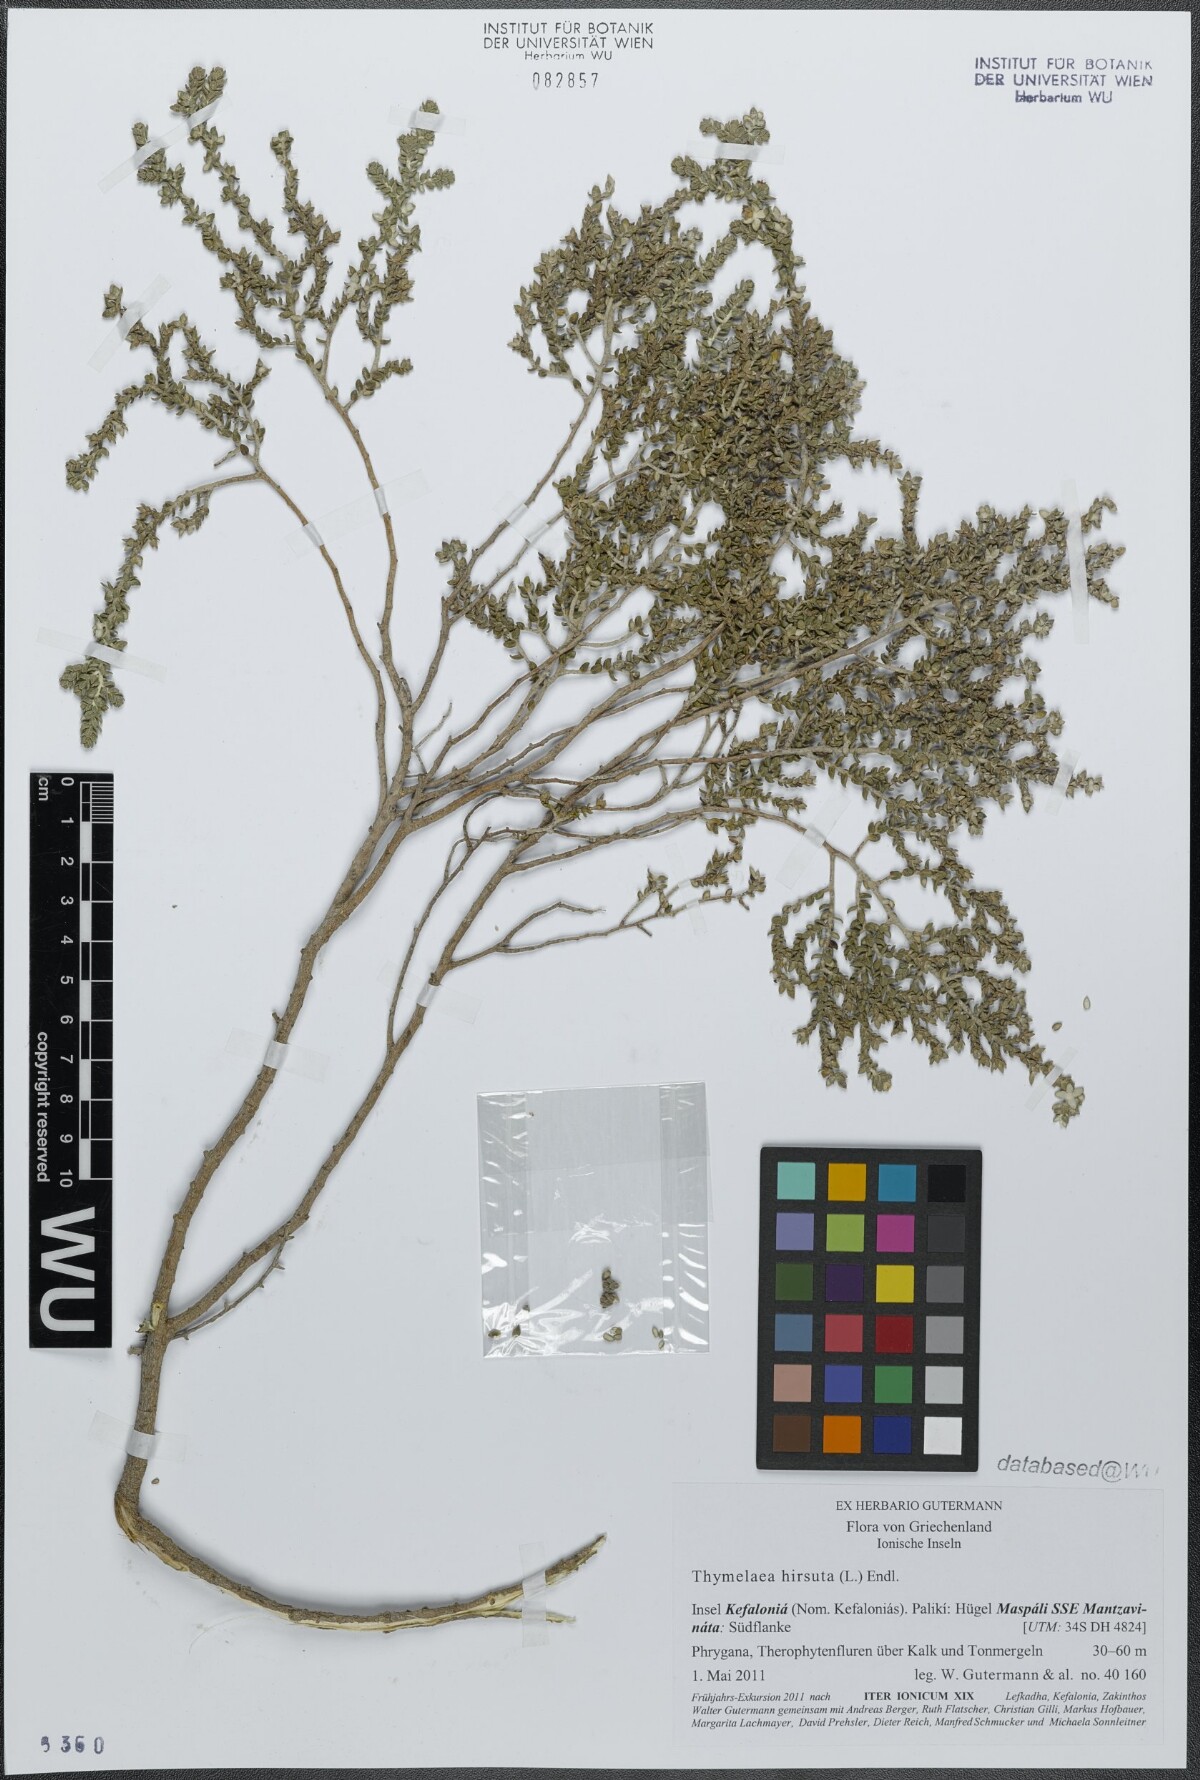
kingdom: Plantae
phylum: Tracheophyta
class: Magnoliopsida
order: Malvales
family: Thymelaeaceae
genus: Thymelaea
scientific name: Thymelaea hirsuta
